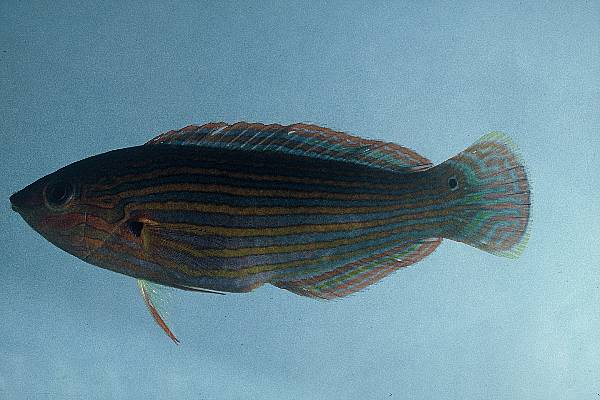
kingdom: Animalia
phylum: Chordata
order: Perciformes
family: Labridae
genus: Halichoeres
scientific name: Halichoeres melanurus
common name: Hoeven's wrasse
